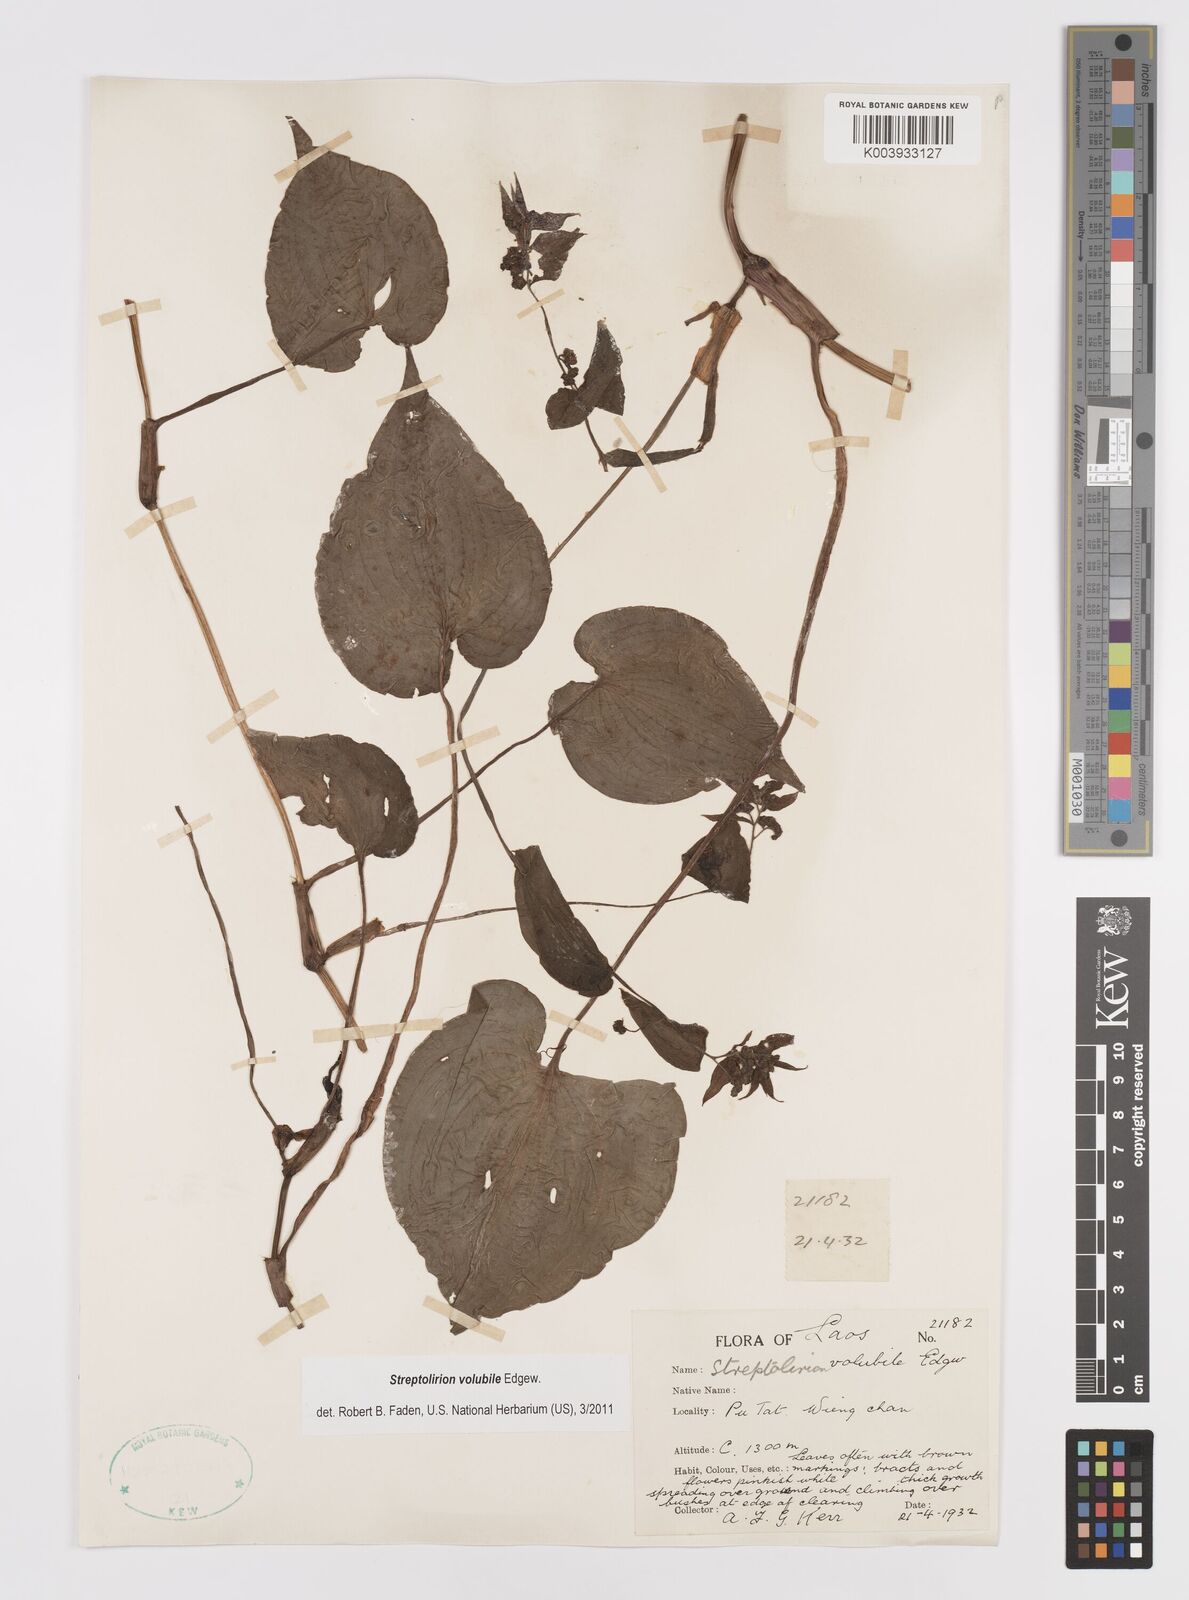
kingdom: Plantae
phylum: Tracheophyta
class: Liliopsida
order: Commelinales
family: Commelinaceae
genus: Streptolirion
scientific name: Streptolirion volubile
